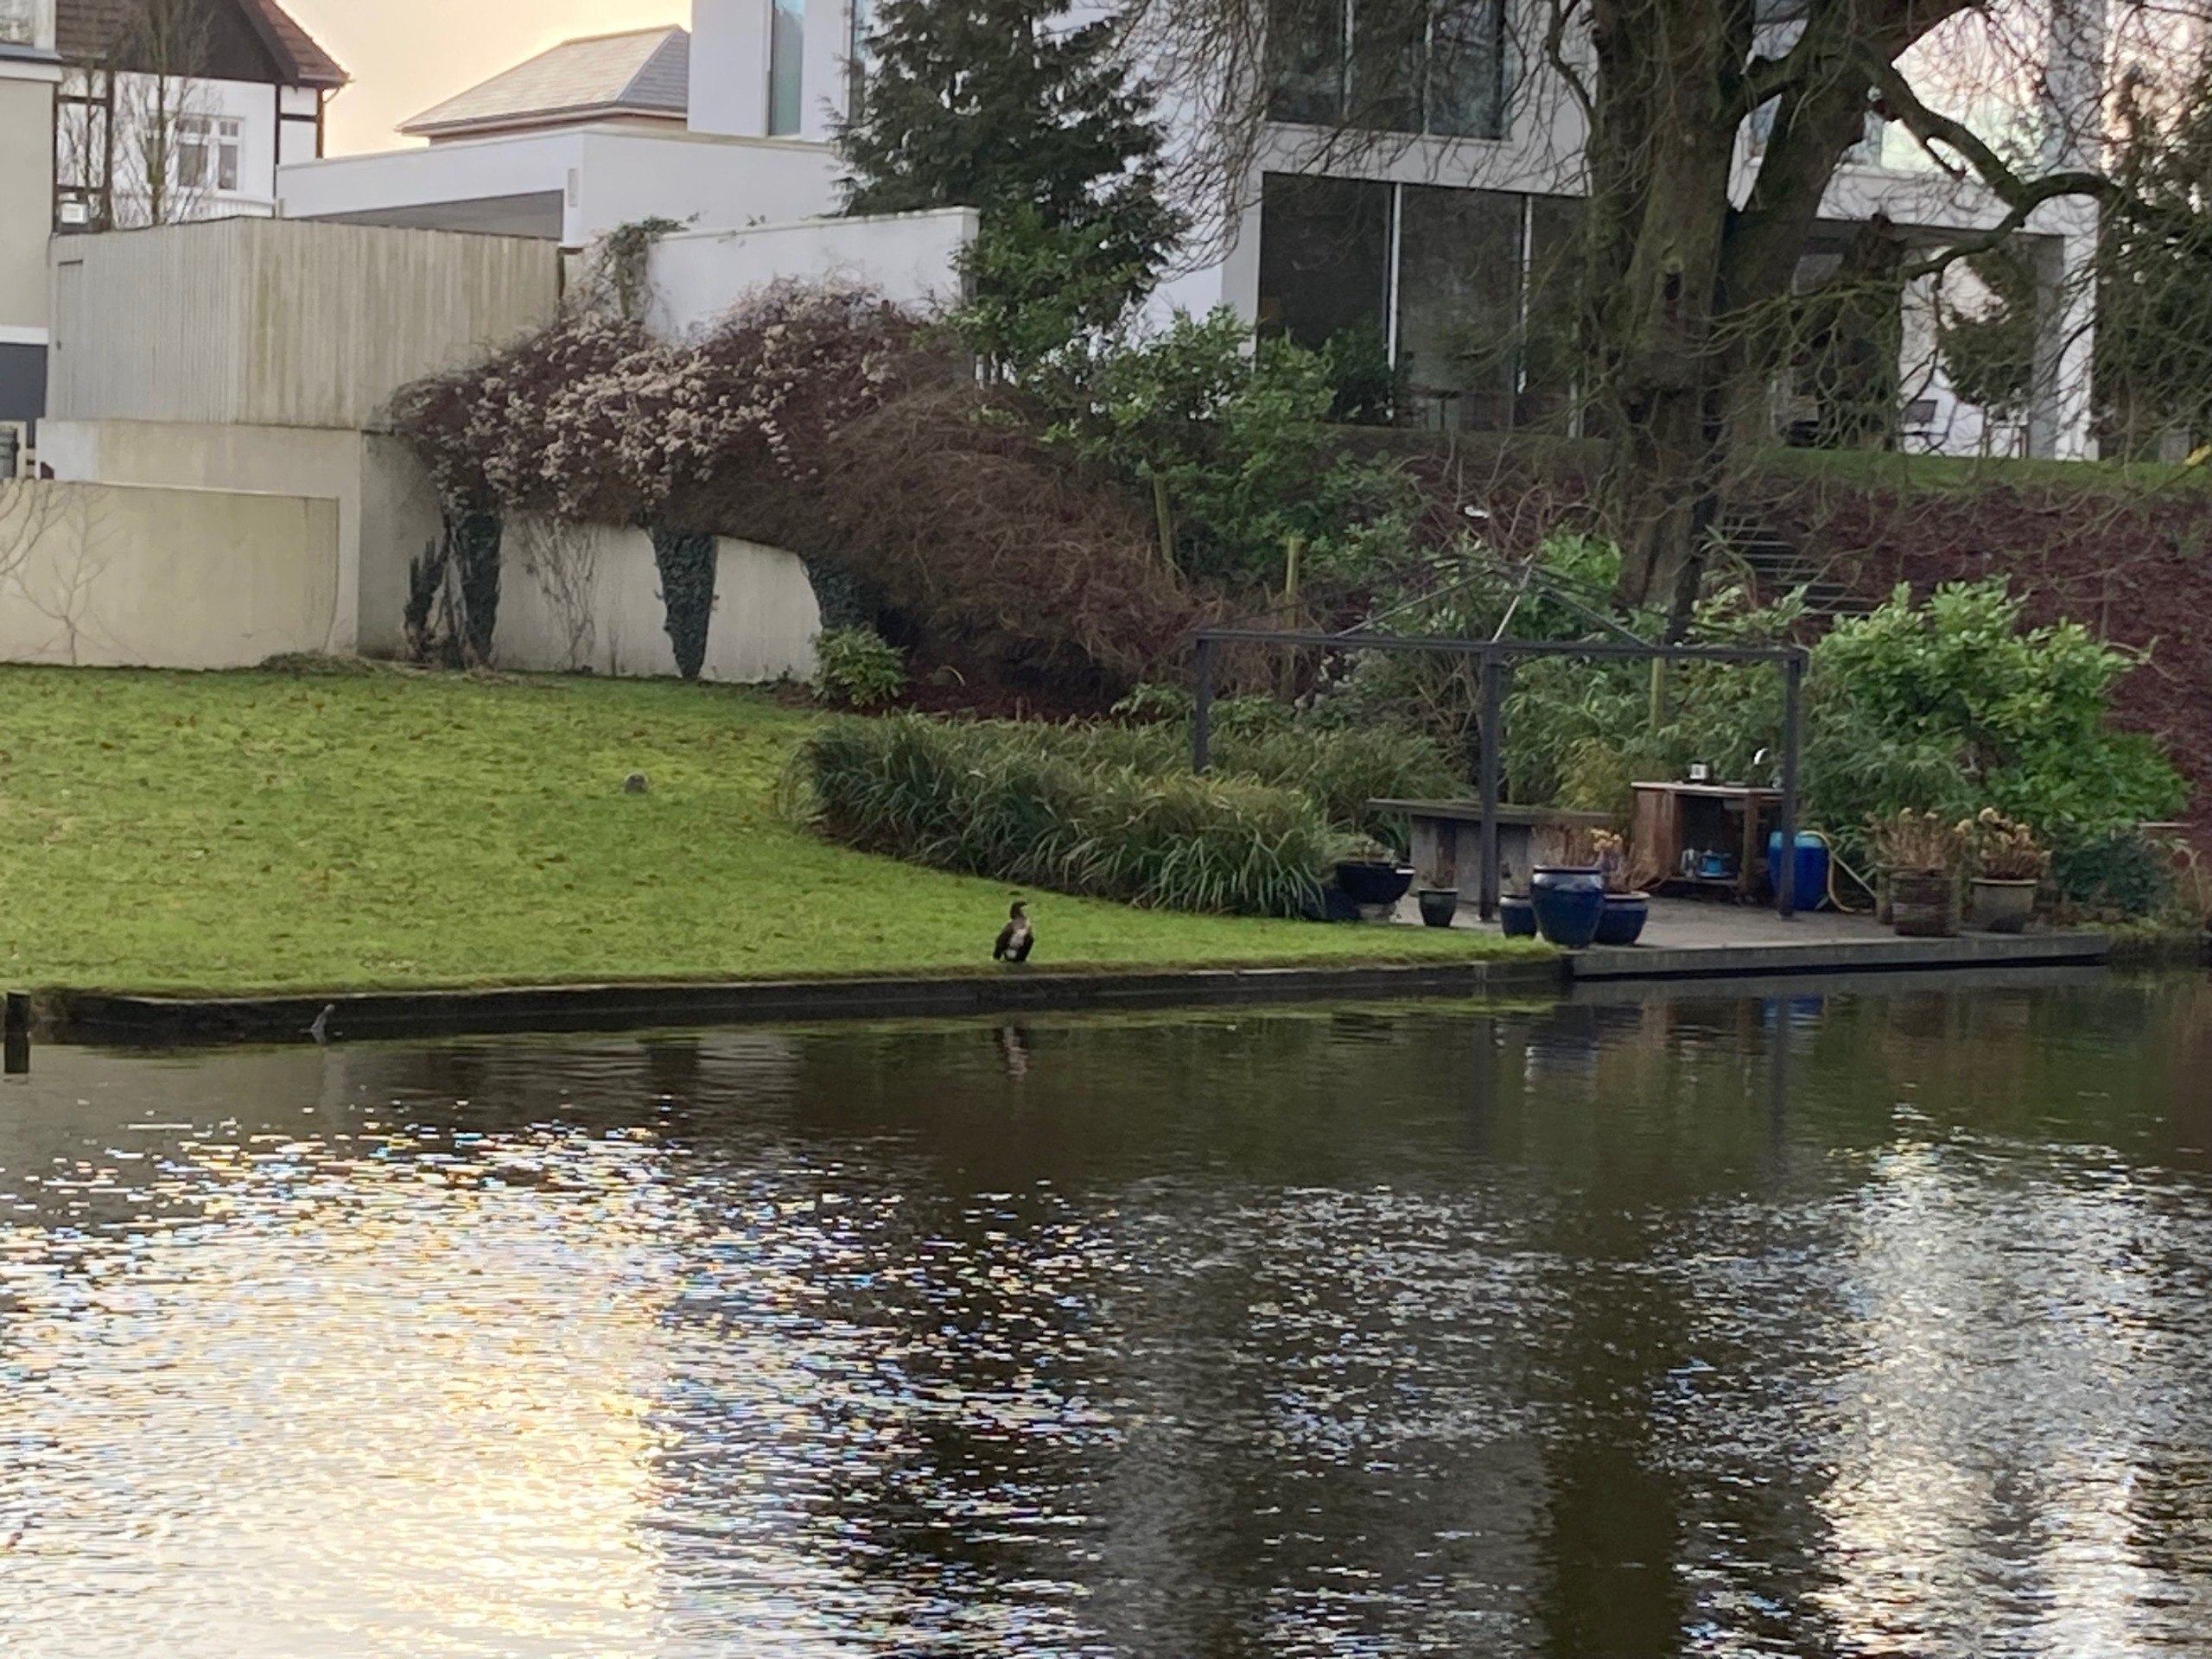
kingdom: Animalia
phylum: Chordata
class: Aves
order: Suliformes
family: Phalacrocoracidae
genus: Phalacrocorax
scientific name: Phalacrocorax carbo
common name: Skarv
